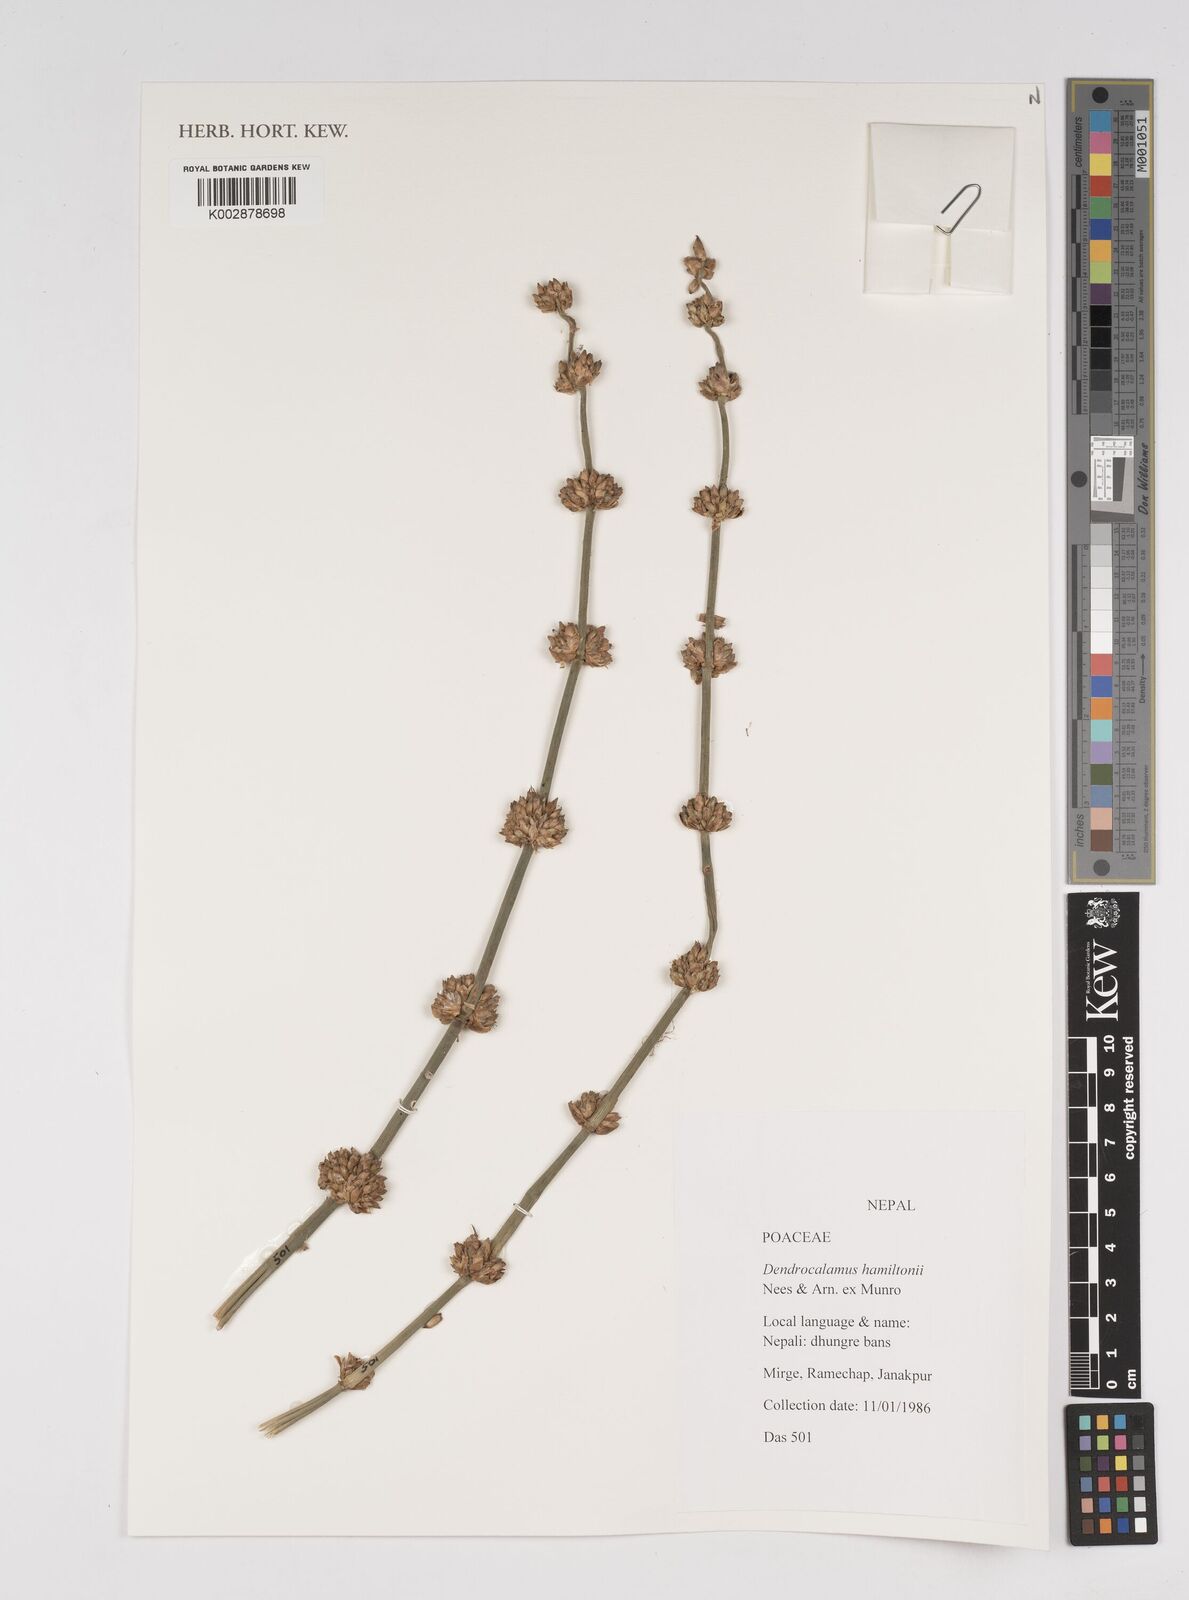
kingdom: Plantae
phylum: Tracheophyta
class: Liliopsida
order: Poales
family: Poaceae
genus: Dendrocalamus
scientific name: Dendrocalamus hamiltonii
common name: Tama bamboo
